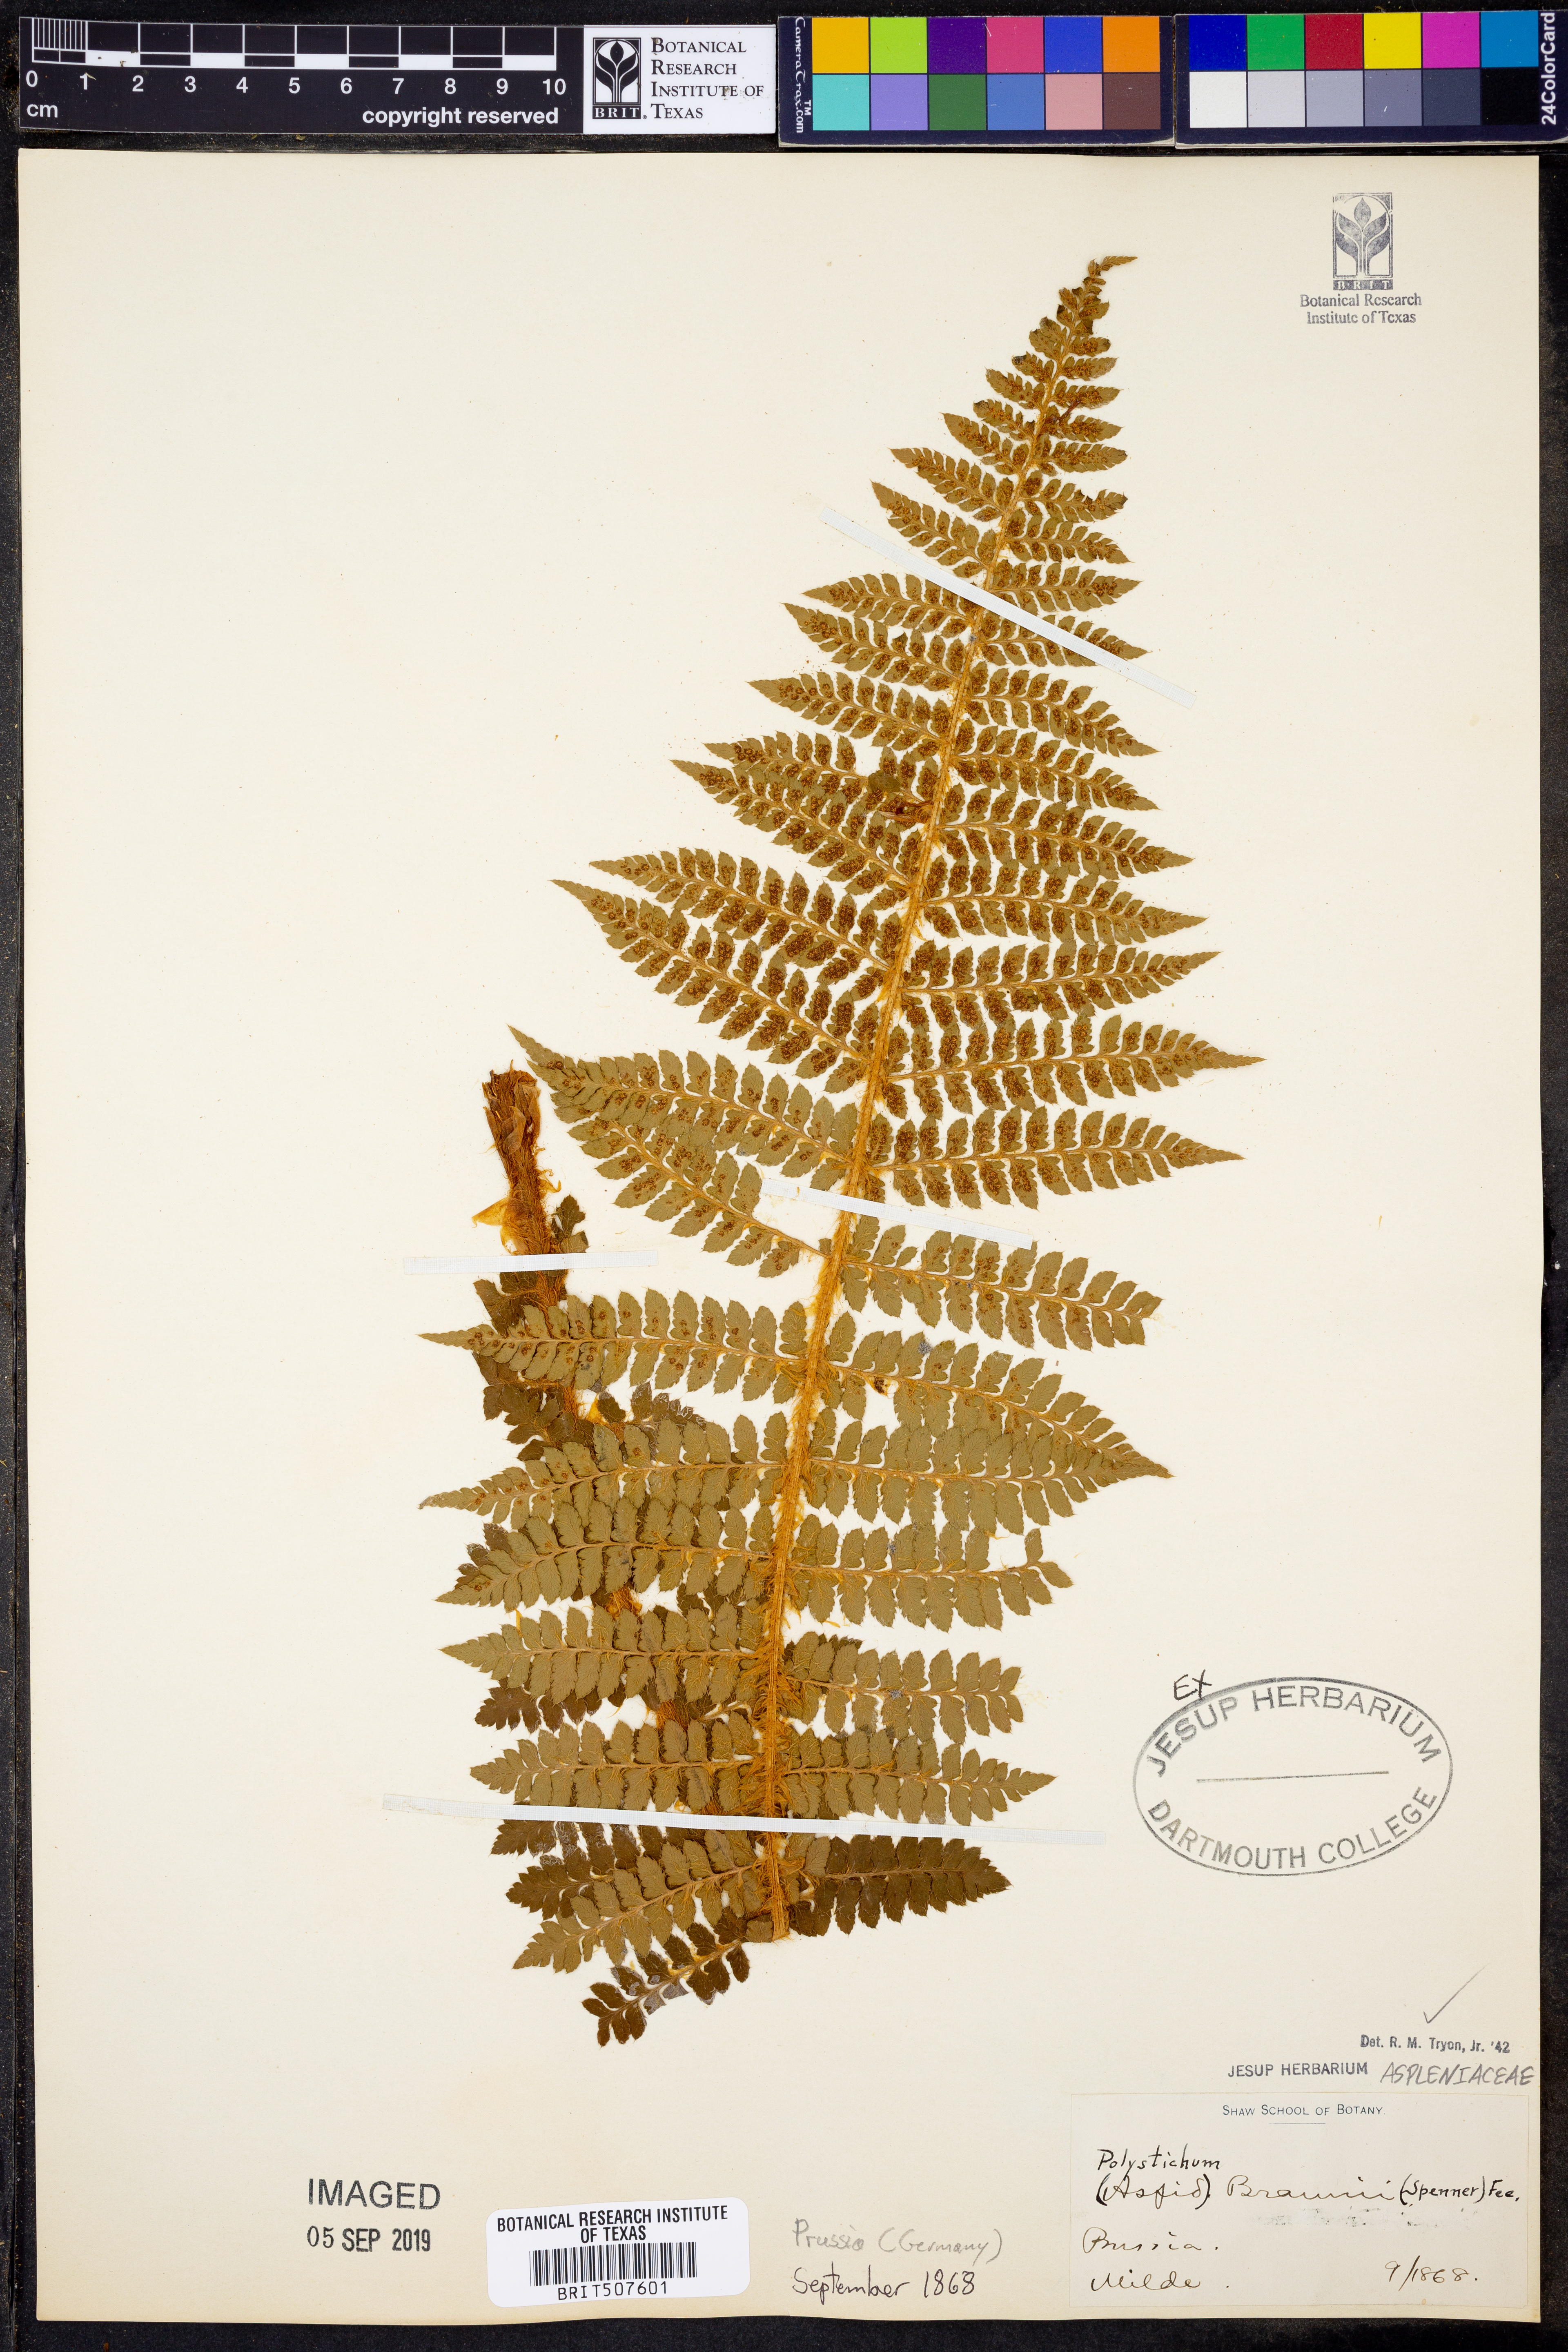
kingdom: Plantae
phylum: Tracheophyta
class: Polypodiopsida
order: Polypodiales
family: Dryopteridaceae
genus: Polystichum
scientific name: Polystichum braunii
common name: Braun's holly fern
